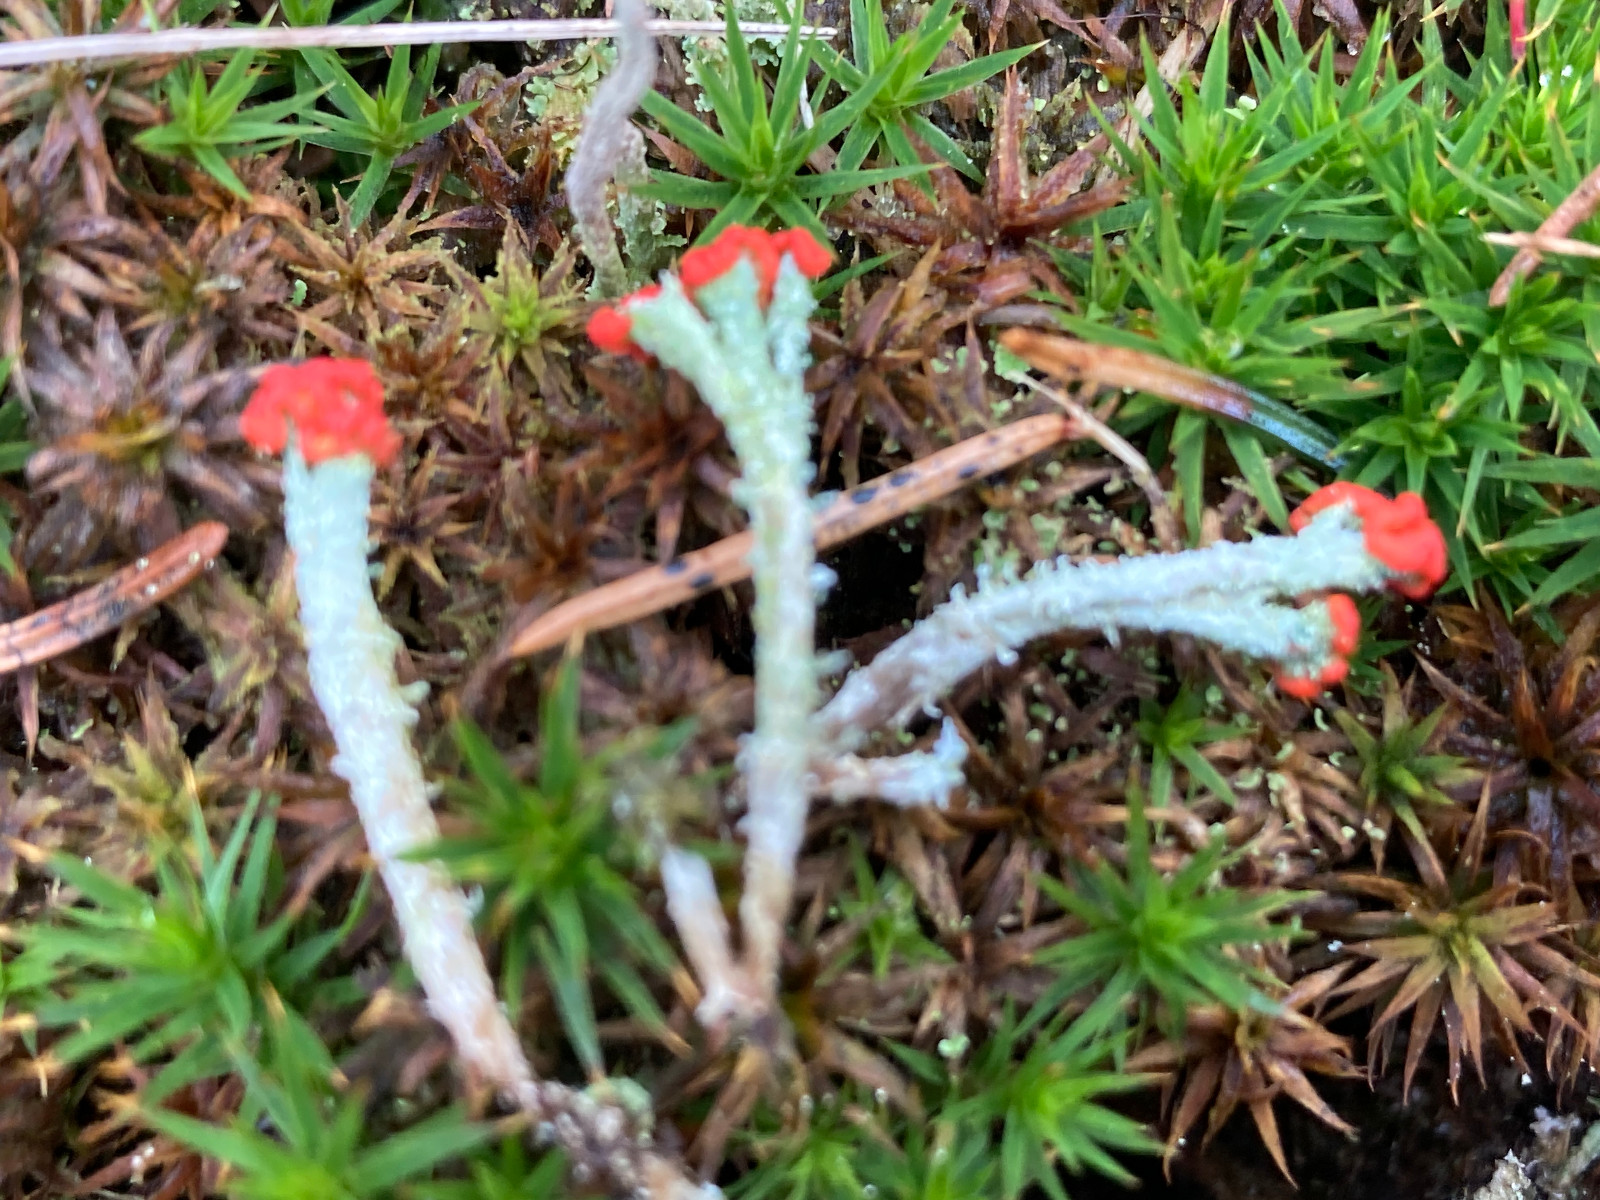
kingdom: Fungi
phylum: Ascomycota
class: Lecanoromycetes
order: Lecanorales
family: Cladoniaceae
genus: Cladonia
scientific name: Cladonia floerkeana
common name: lakrød bægerlav
